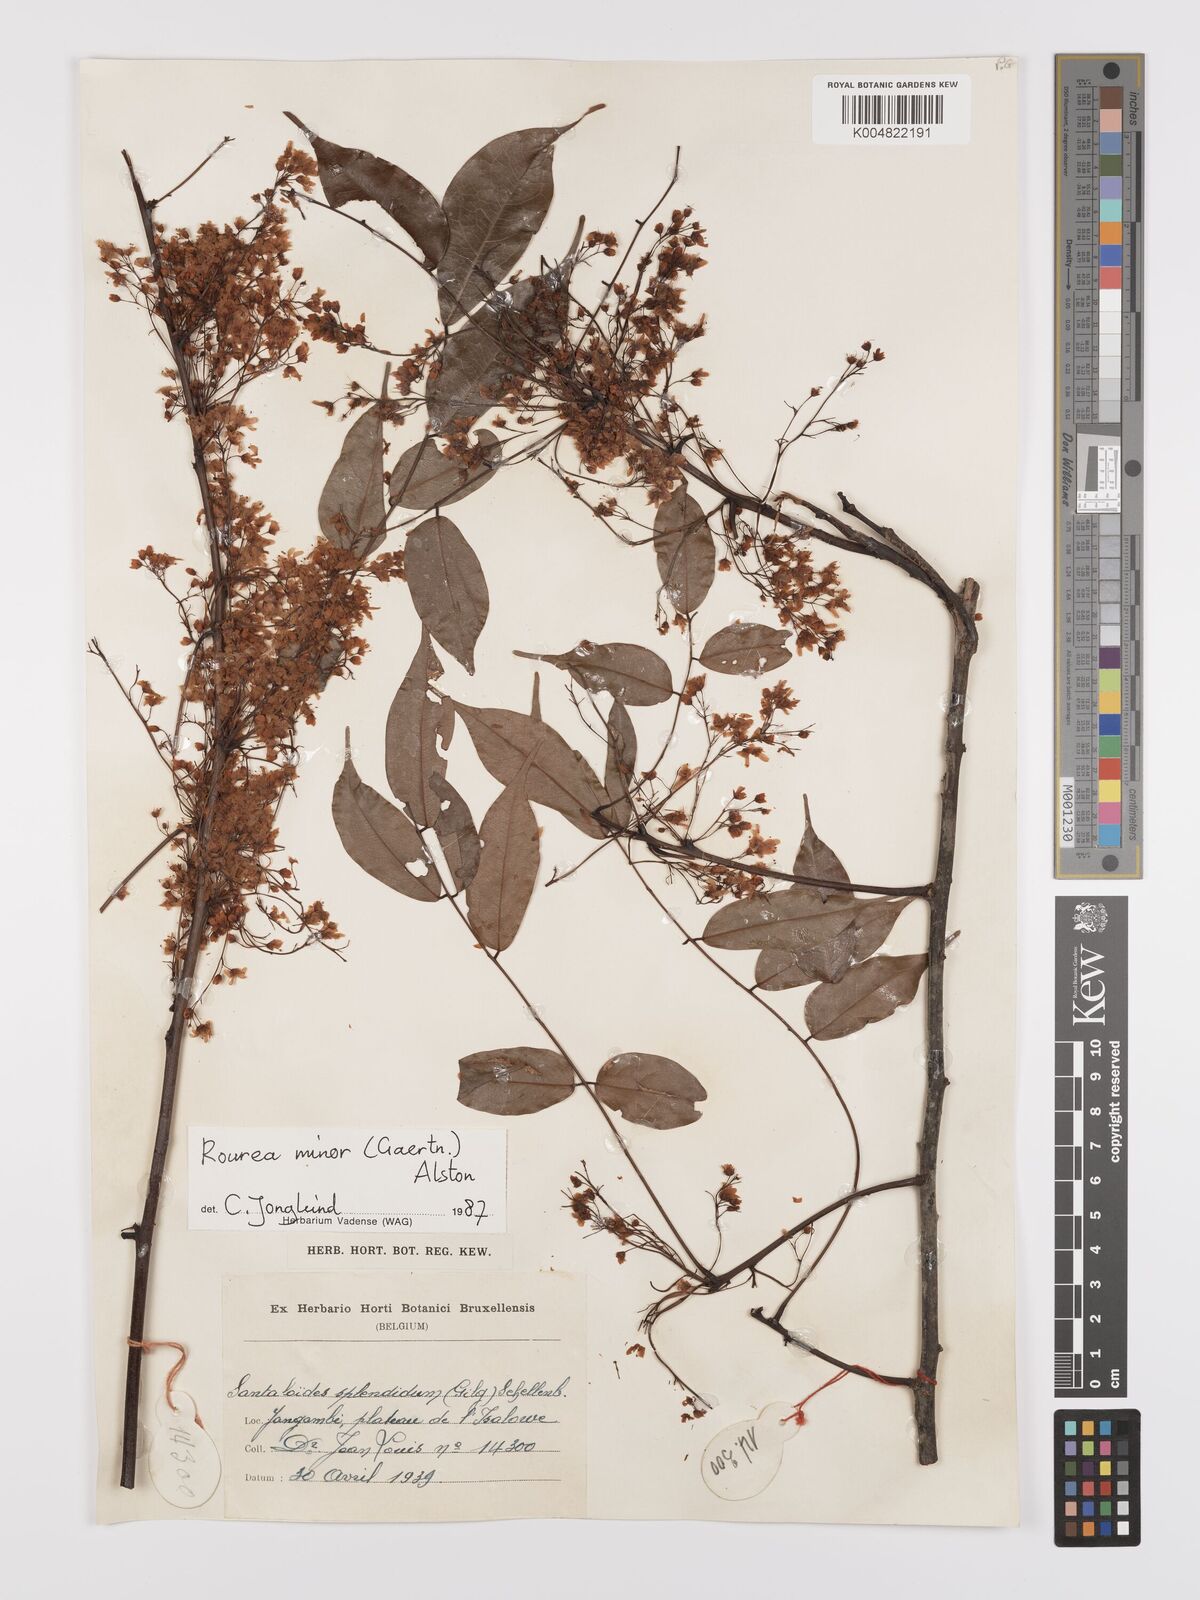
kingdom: Plantae
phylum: Tracheophyta
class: Magnoliopsida
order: Oxalidales
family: Connaraceae
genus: Rourea
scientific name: Rourea minor
